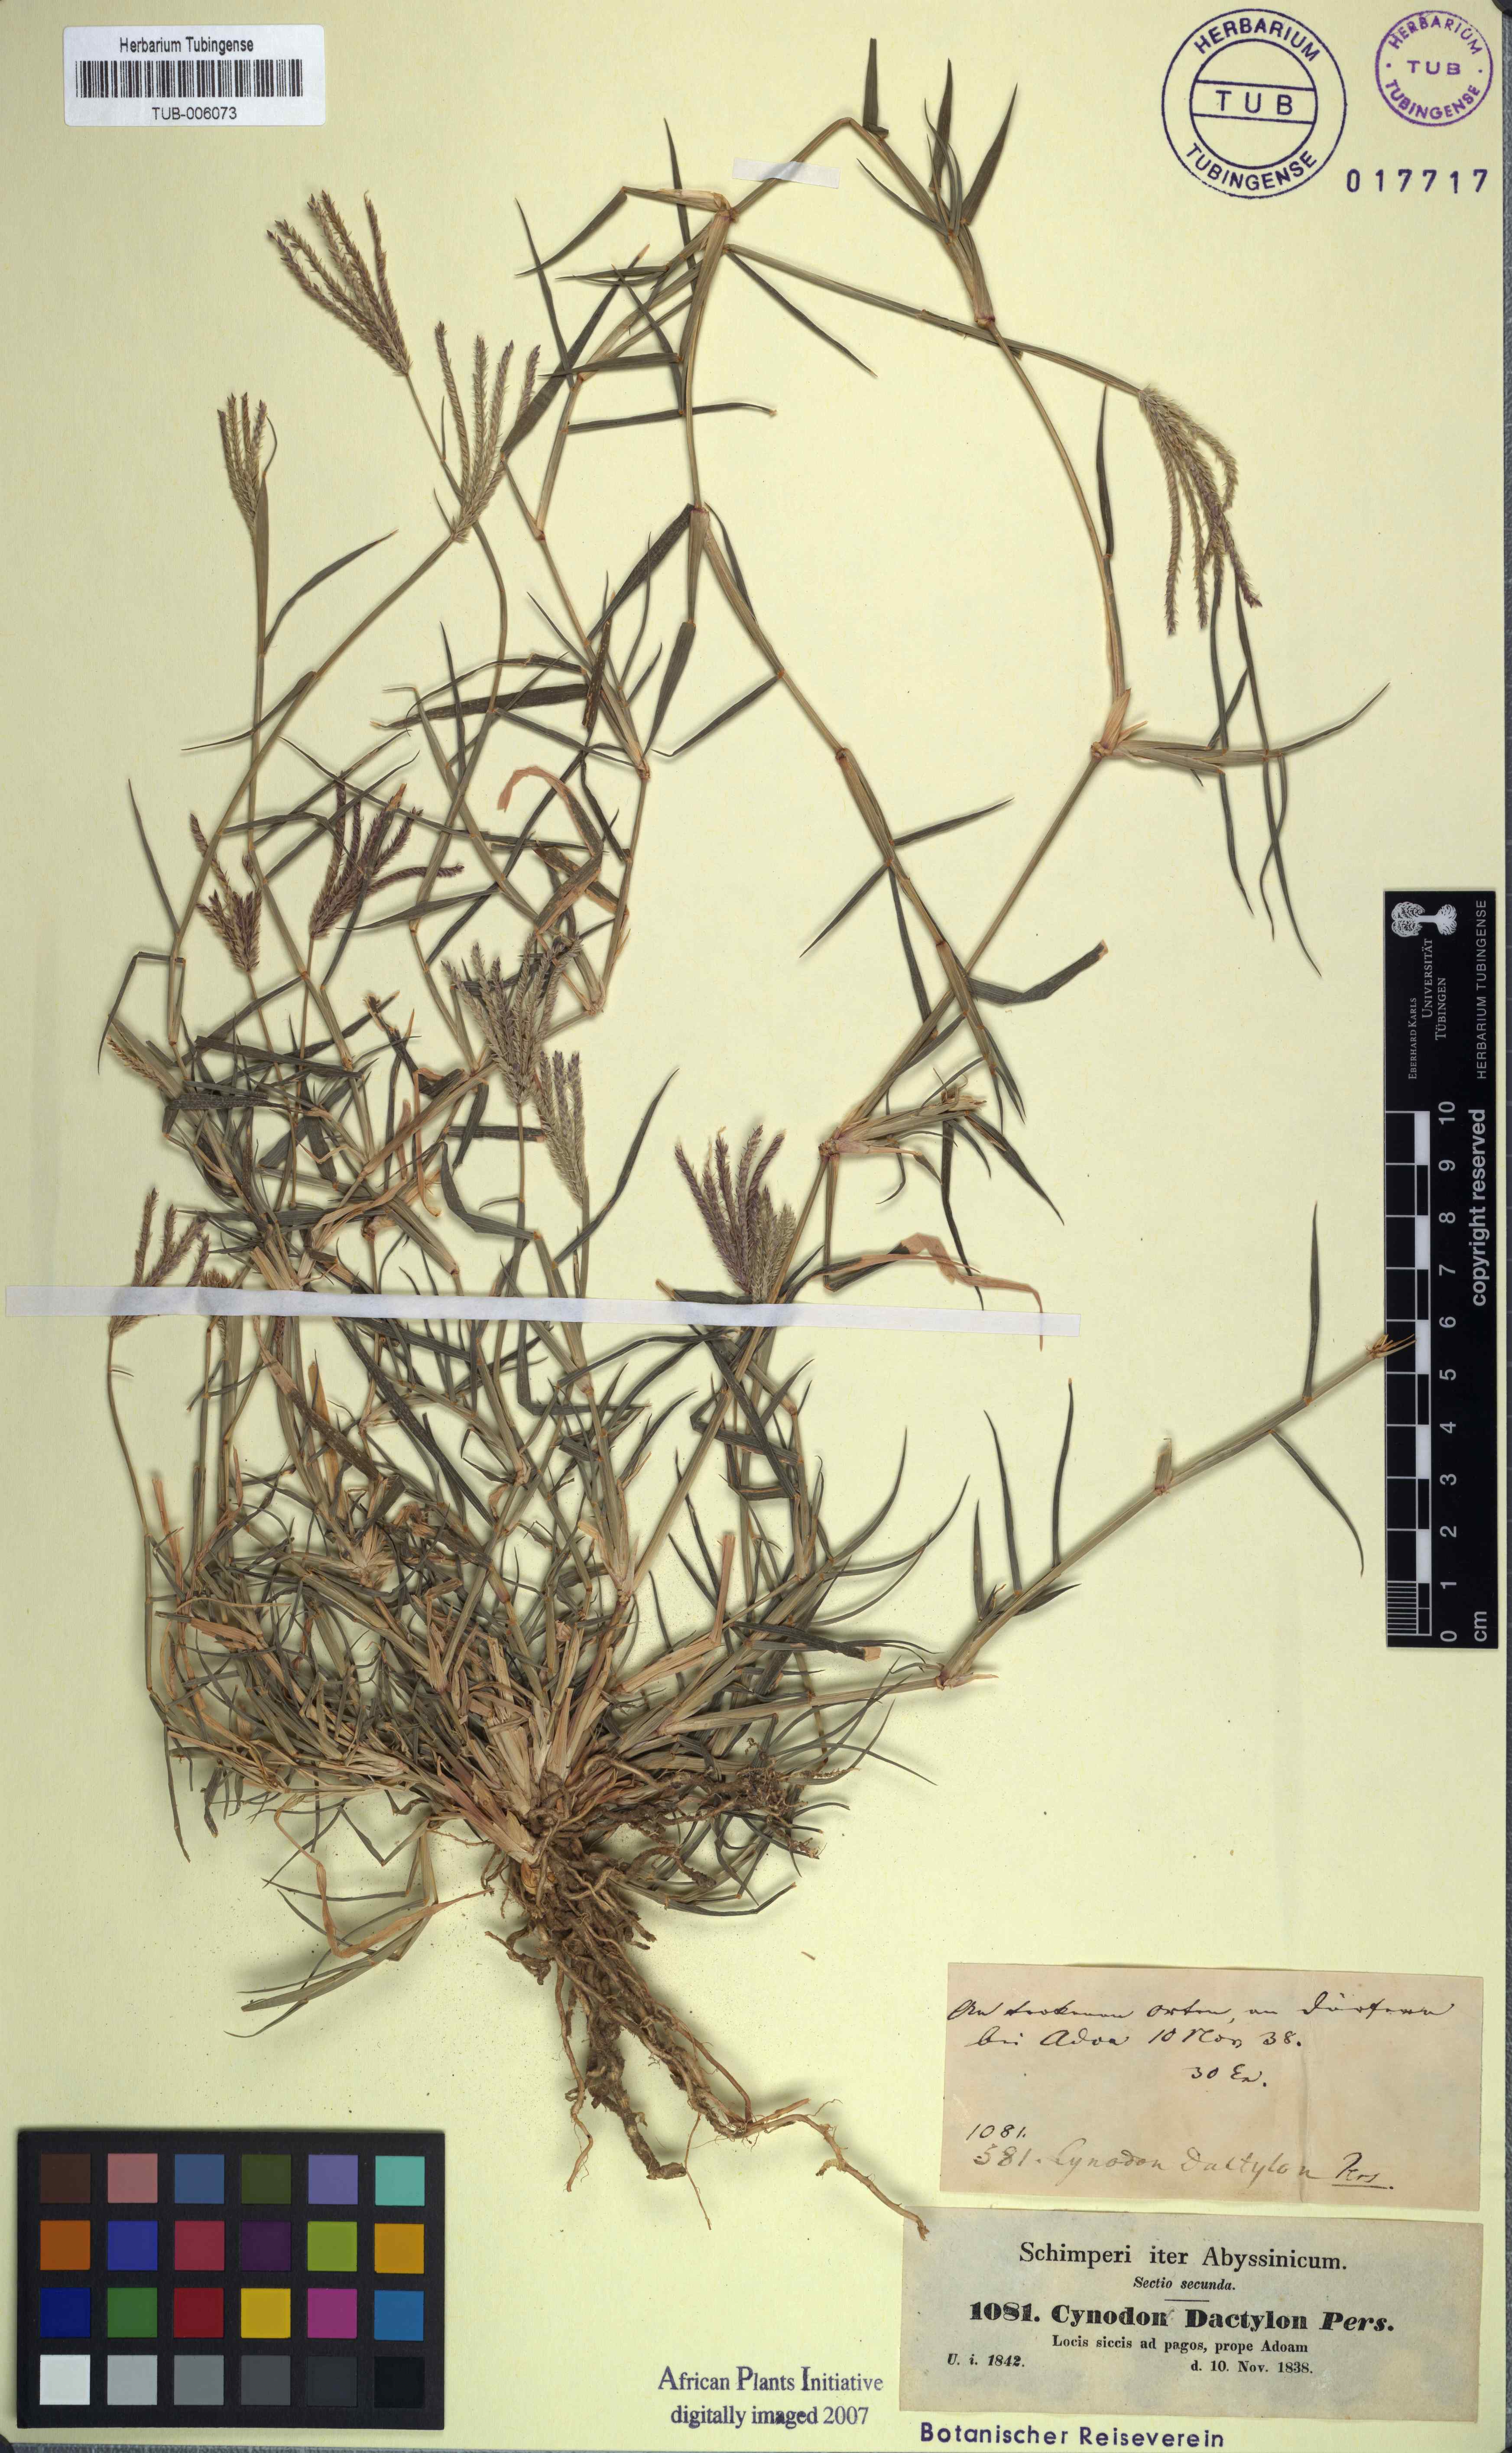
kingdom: Plantae
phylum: Tracheophyta
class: Liliopsida
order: Poales
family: Poaceae
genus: Cynodon
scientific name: Cynodon dactylon
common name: Bermuda grass
